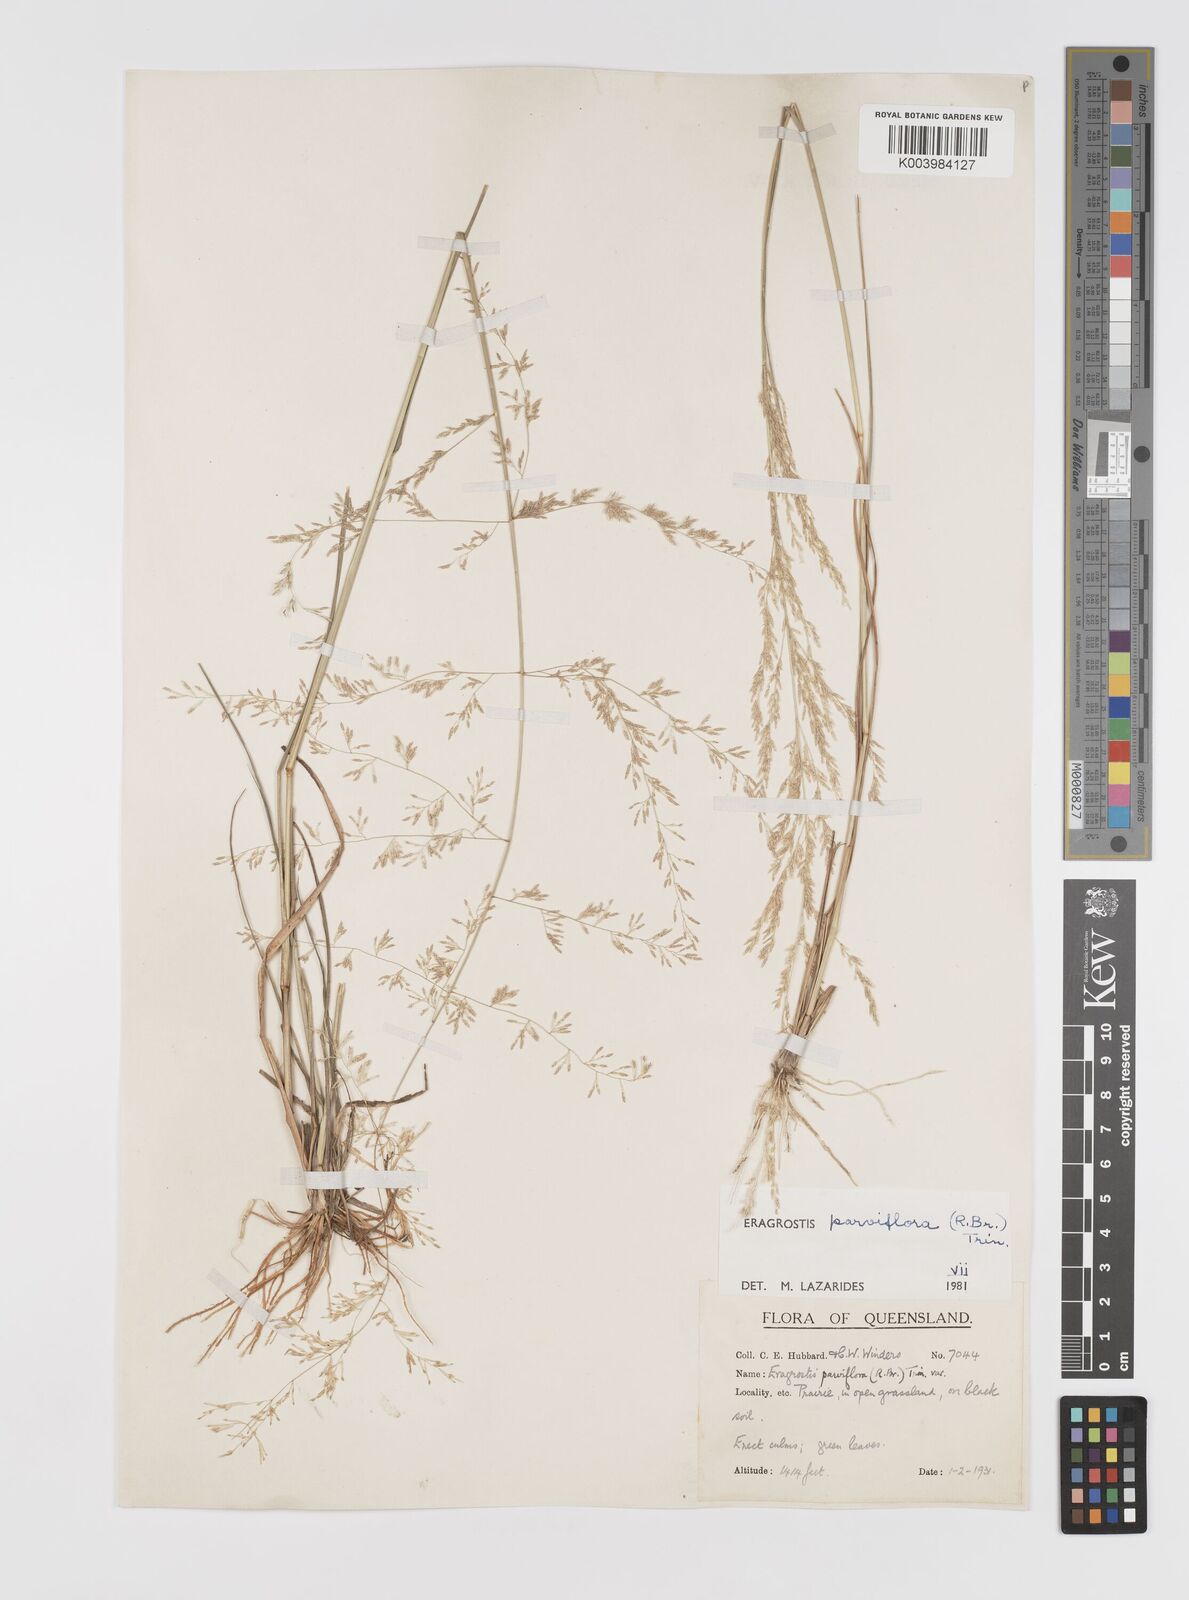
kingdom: Plantae
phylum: Tracheophyta
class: Liliopsida
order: Poales
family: Poaceae
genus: Eragrostis
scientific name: Eragrostis parviflora
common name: Weeping love-grass
